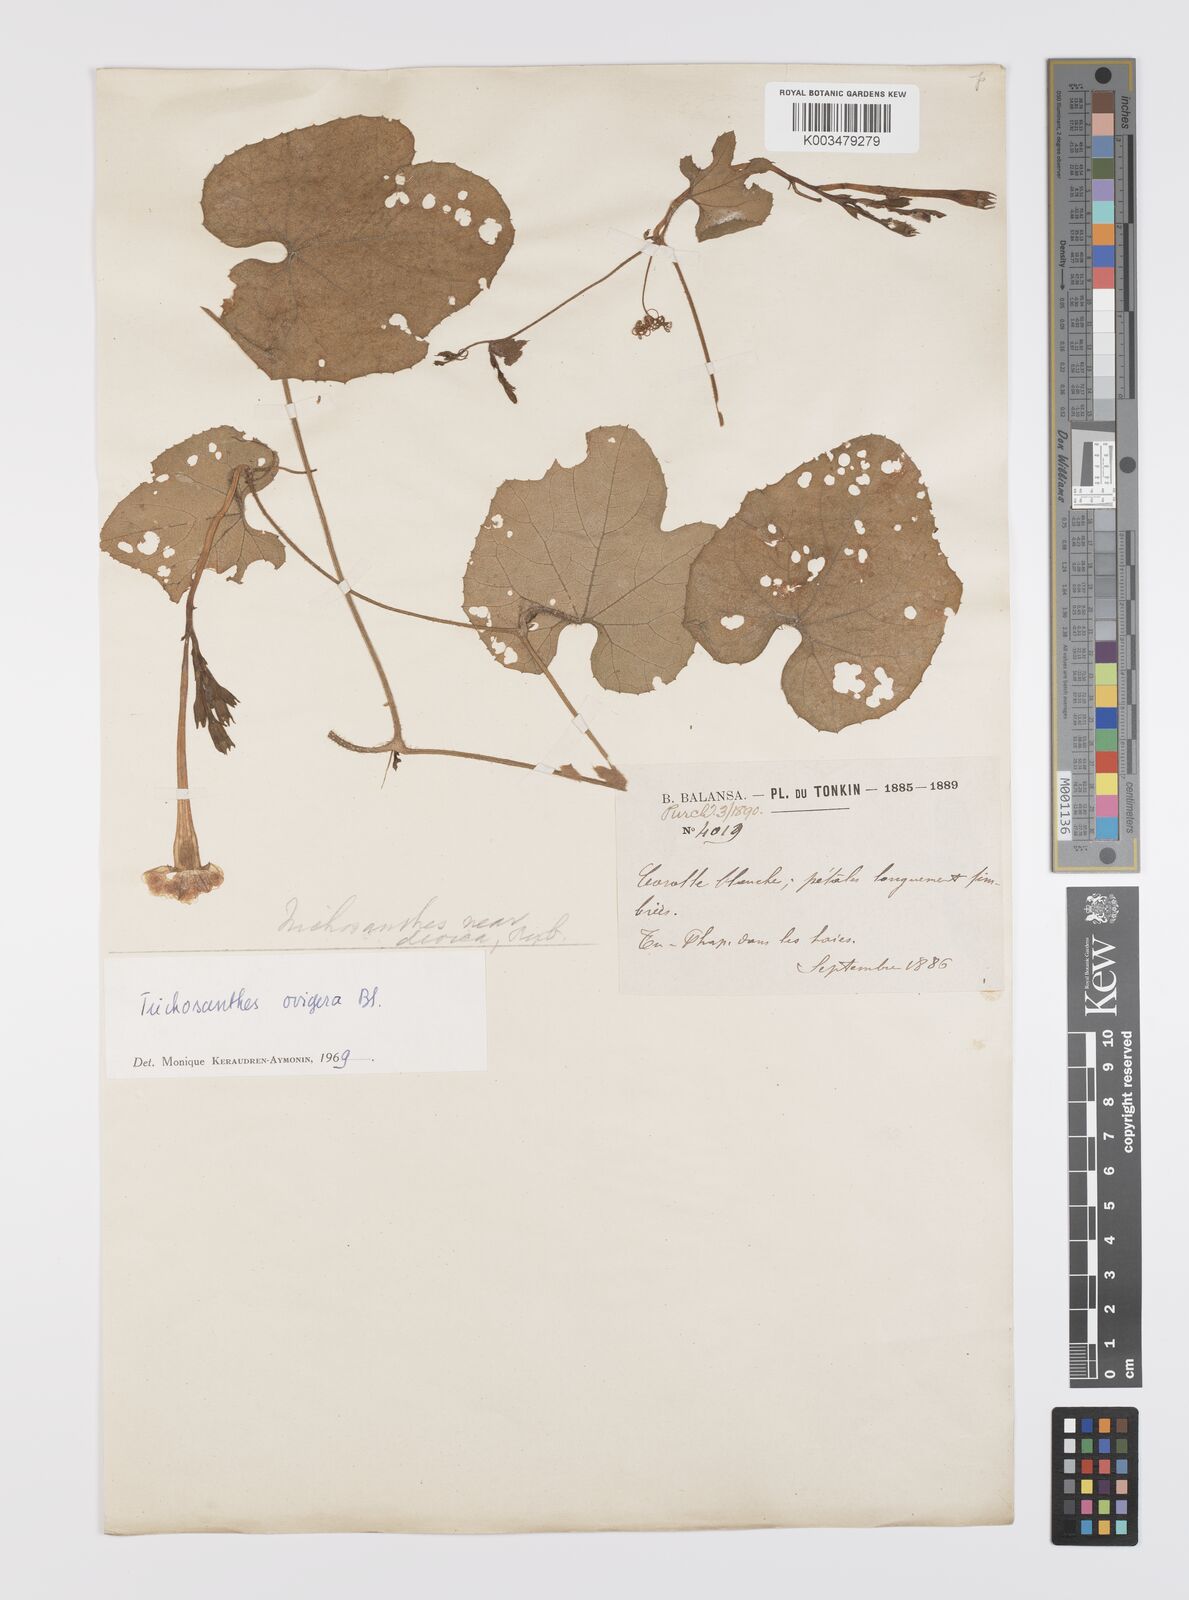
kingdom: Plantae
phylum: Tracheophyta
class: Magnoliopsida
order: Cucurbitales
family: Cucurbitaceae
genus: Trichosanthes
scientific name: Trichosanthes ovigera
